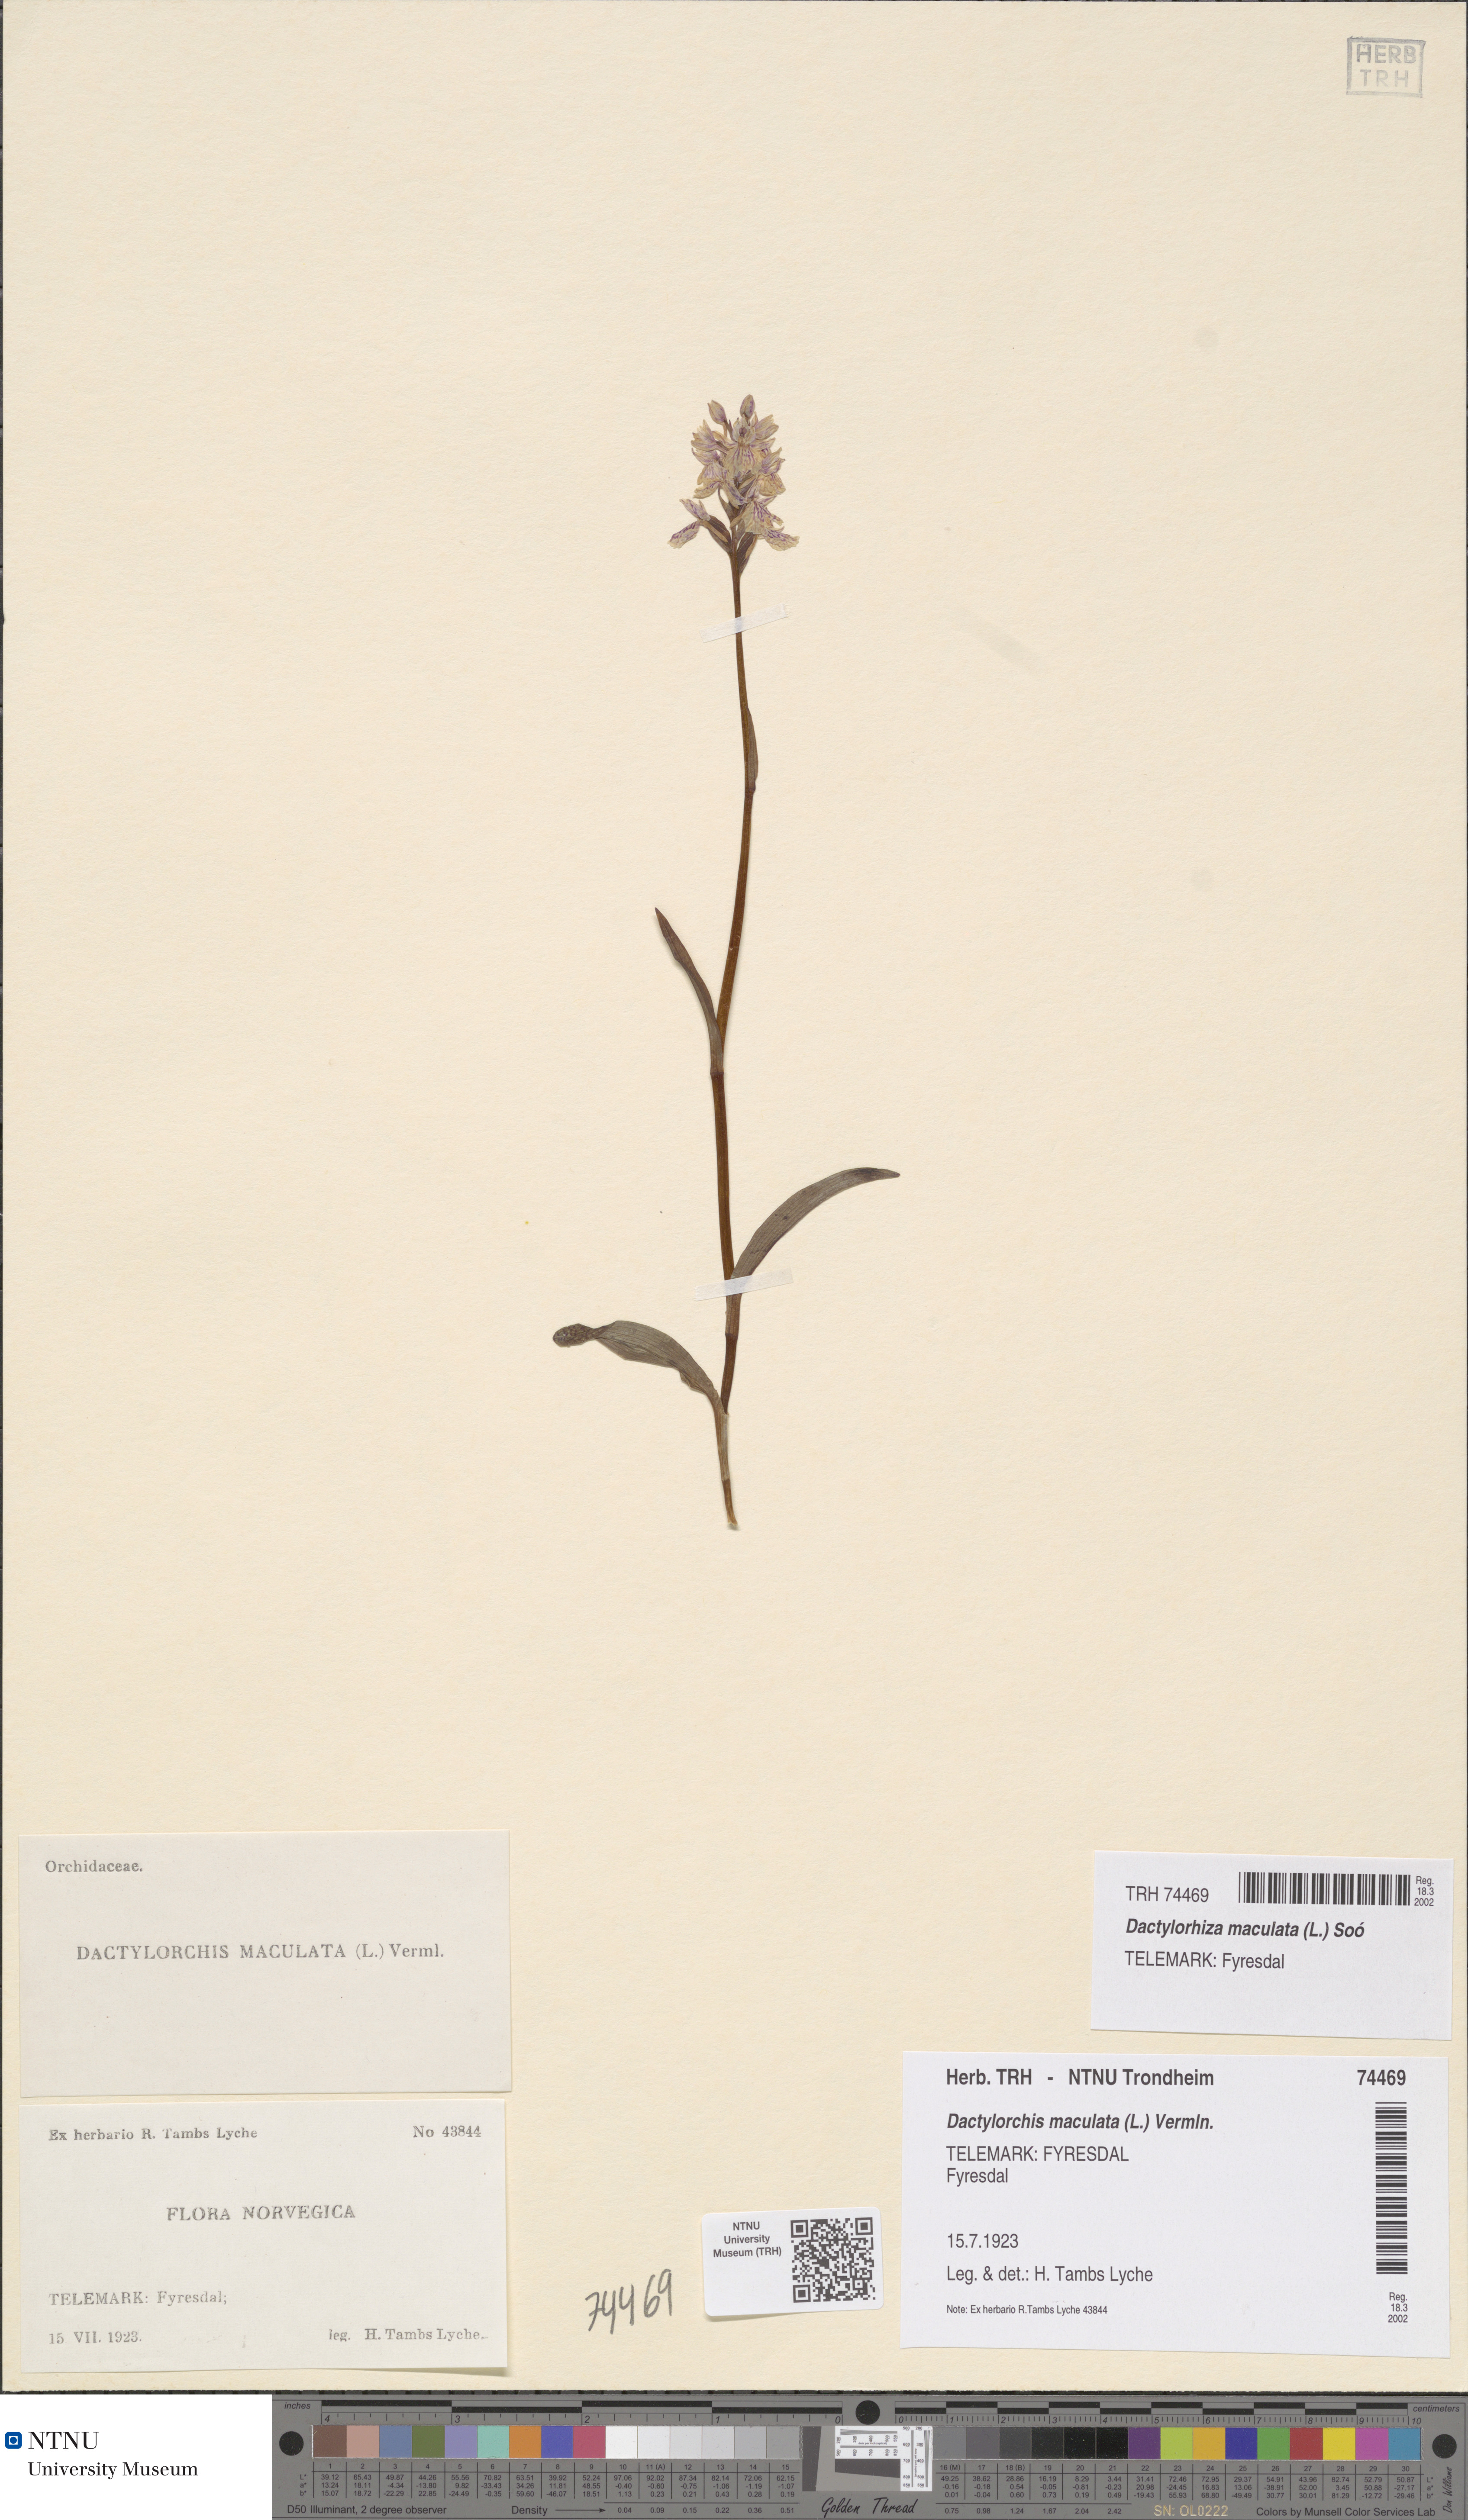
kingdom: Plantae
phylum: Tracheophyta
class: Liliopsida
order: Asparagales
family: Orchidaceae
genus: Dactylorhiza
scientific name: Dactylorhiza maculata
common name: Heath spotted-orchid
